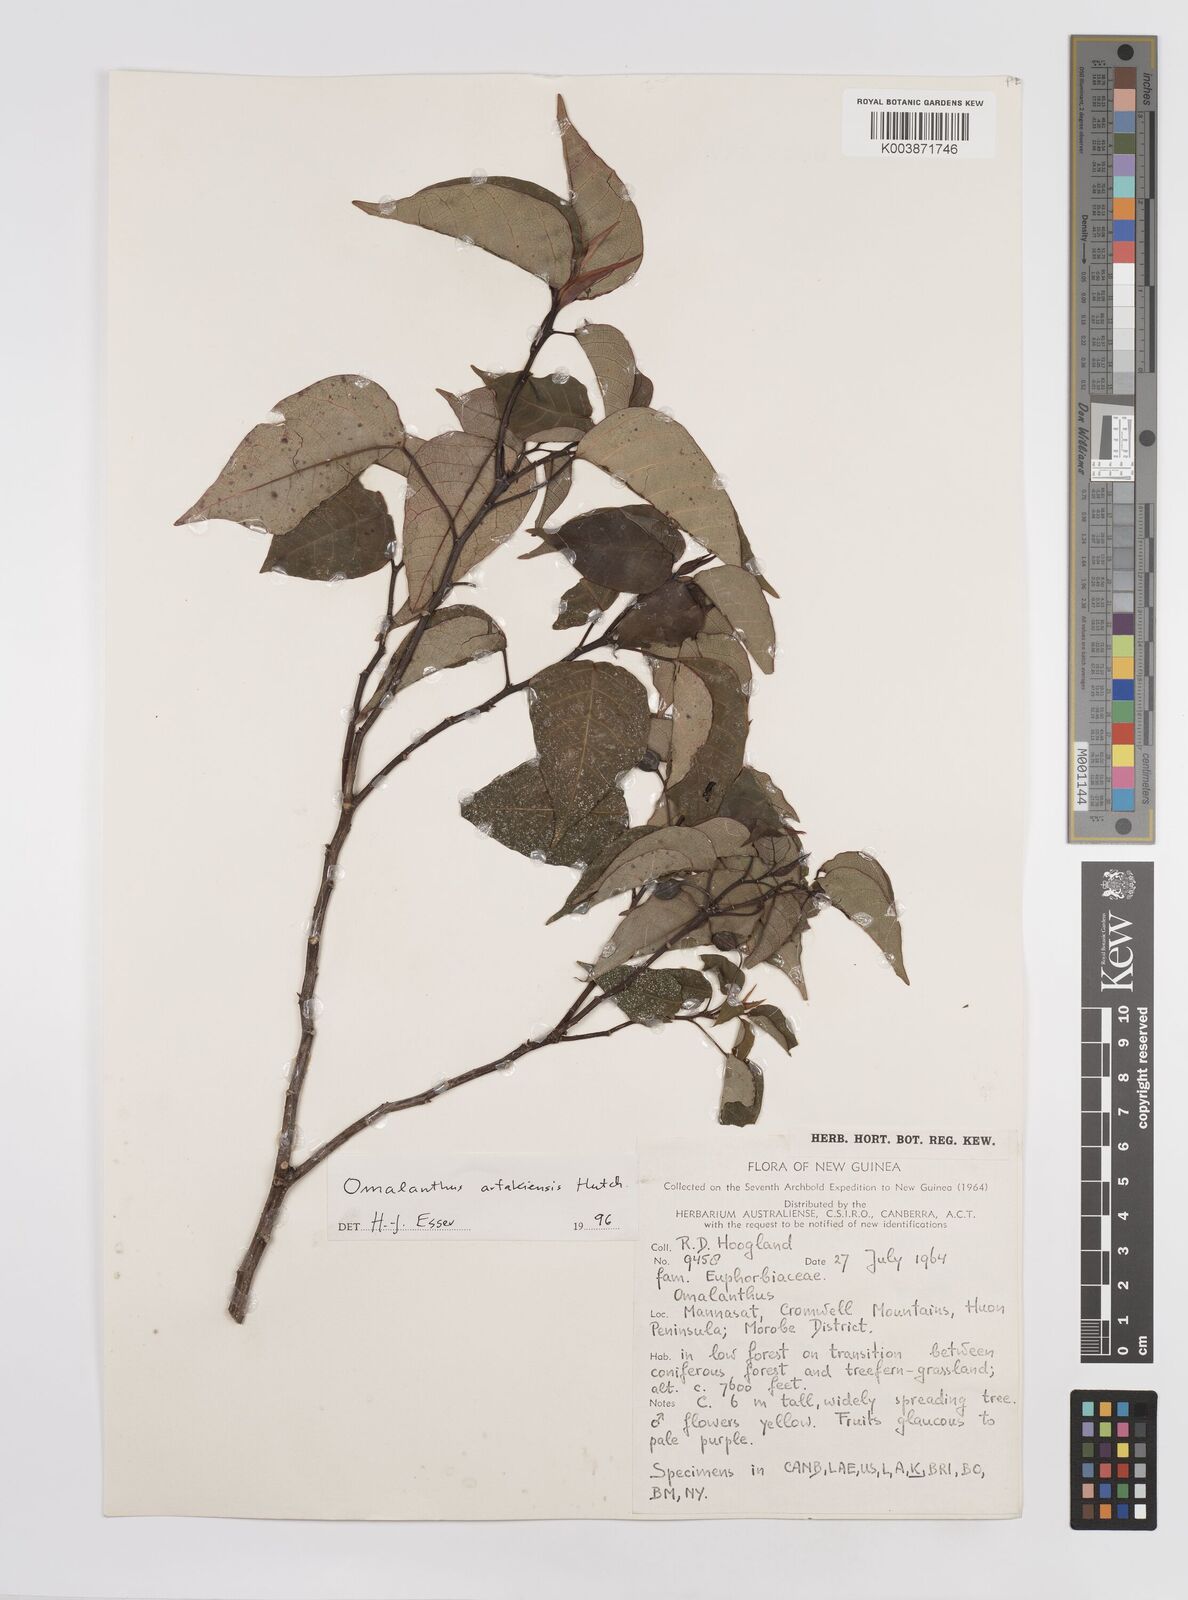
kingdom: Plantae
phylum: Tracheophyta
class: Magnoliopsida
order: Malpighiales
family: Euphorbiaceae
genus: Homalanthus
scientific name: Homalanthus arfakiensis
